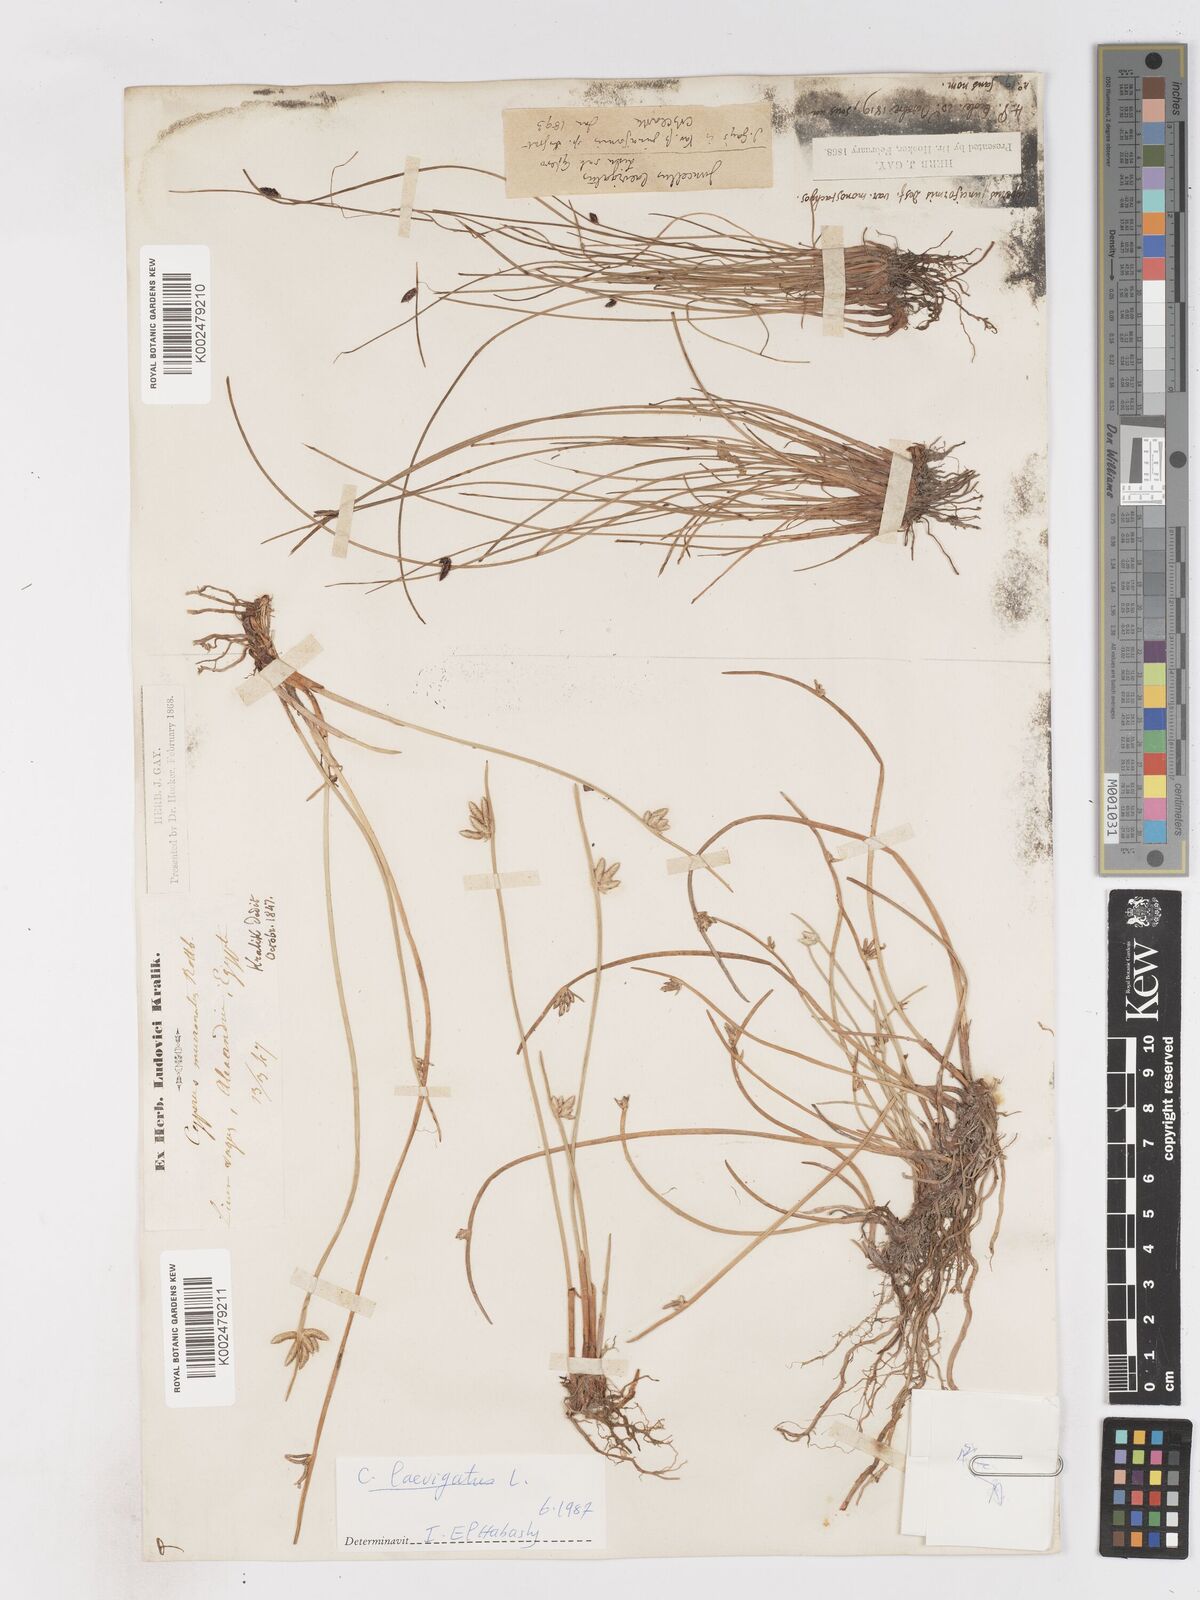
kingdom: Plantae
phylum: Tracheophyta
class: Liliopsida
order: Poales
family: Cyperaceae
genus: Cyperus
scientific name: Cyperus laevigatus
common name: Smooth flat sedge
